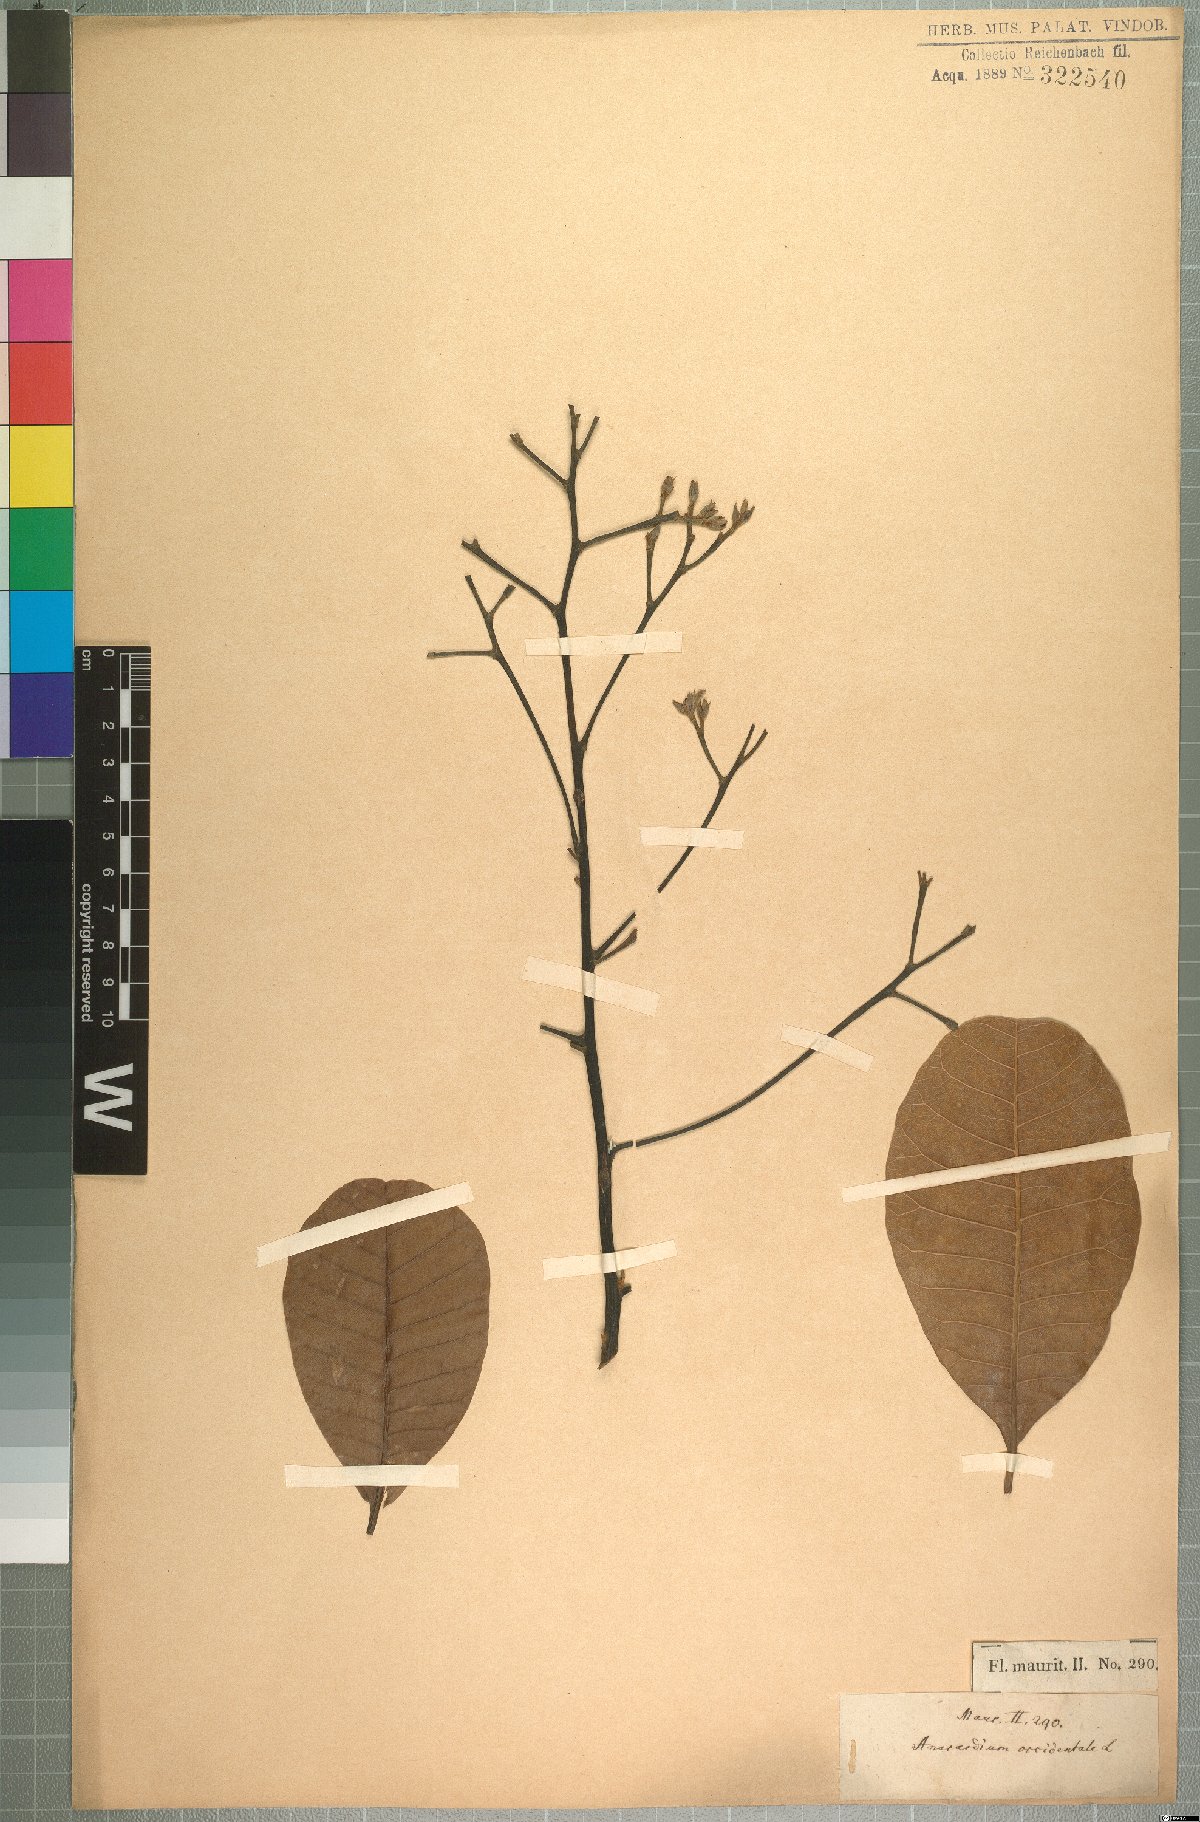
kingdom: Plantae
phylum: Tracheophyta
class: Magnoliopsida
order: Sapindales
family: Anacardiaceae
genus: Anacardium
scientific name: Anacardium occidentale
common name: Cashew
